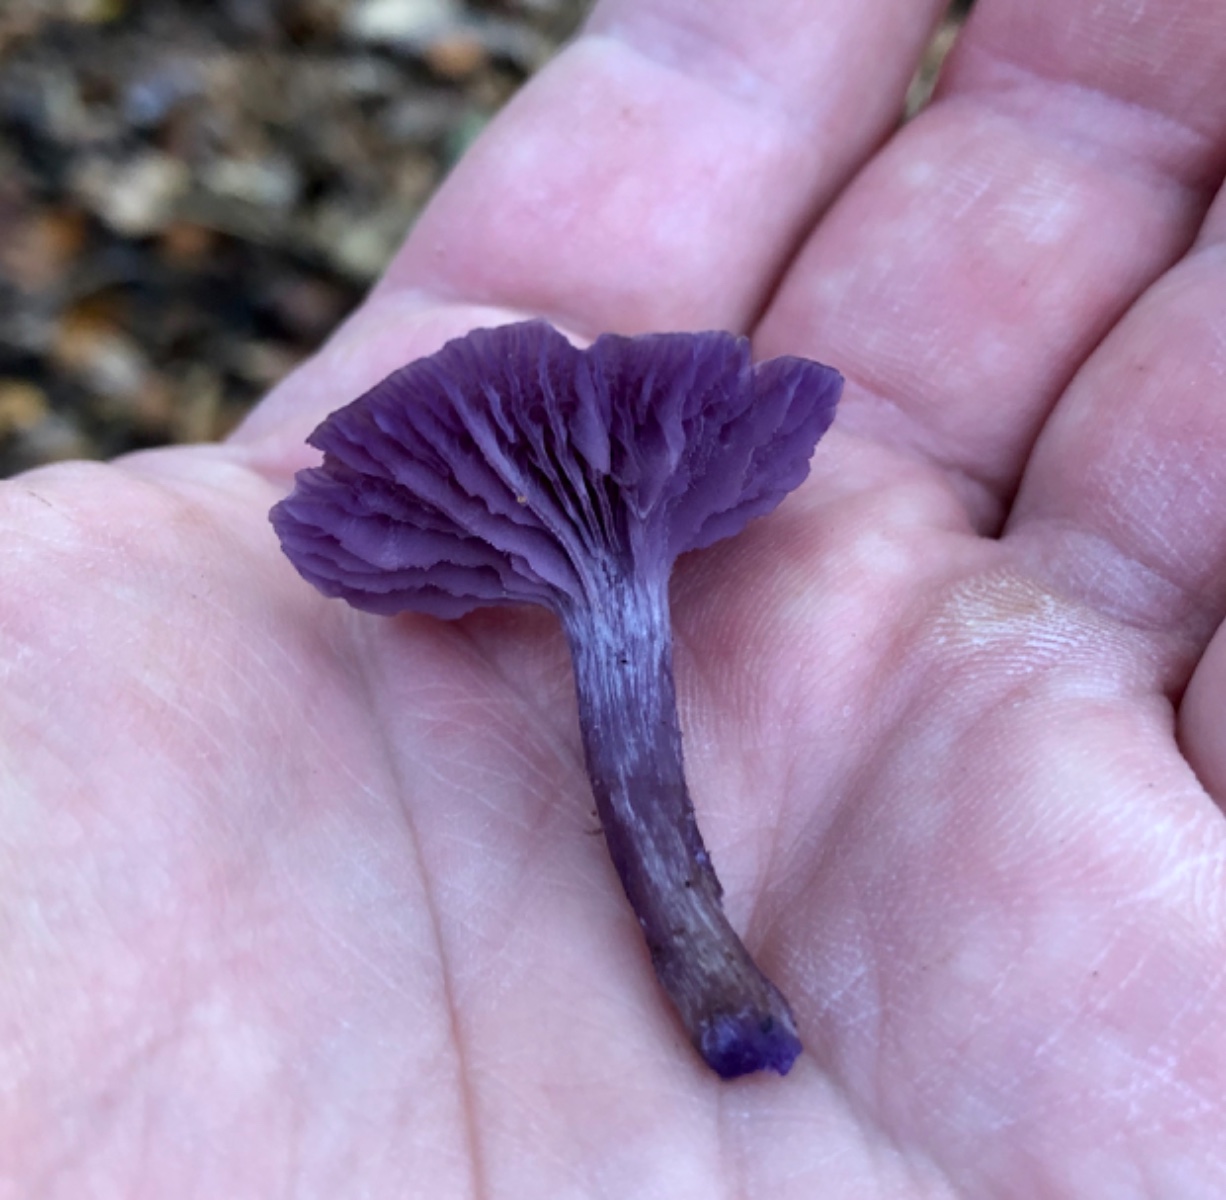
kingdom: Fungi
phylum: Basidiomycota
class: Agaricomycetes
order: Agaricales
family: Hydnangiaceae
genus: Laccaria
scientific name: Laccaria amethystina
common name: violet ametysthat
